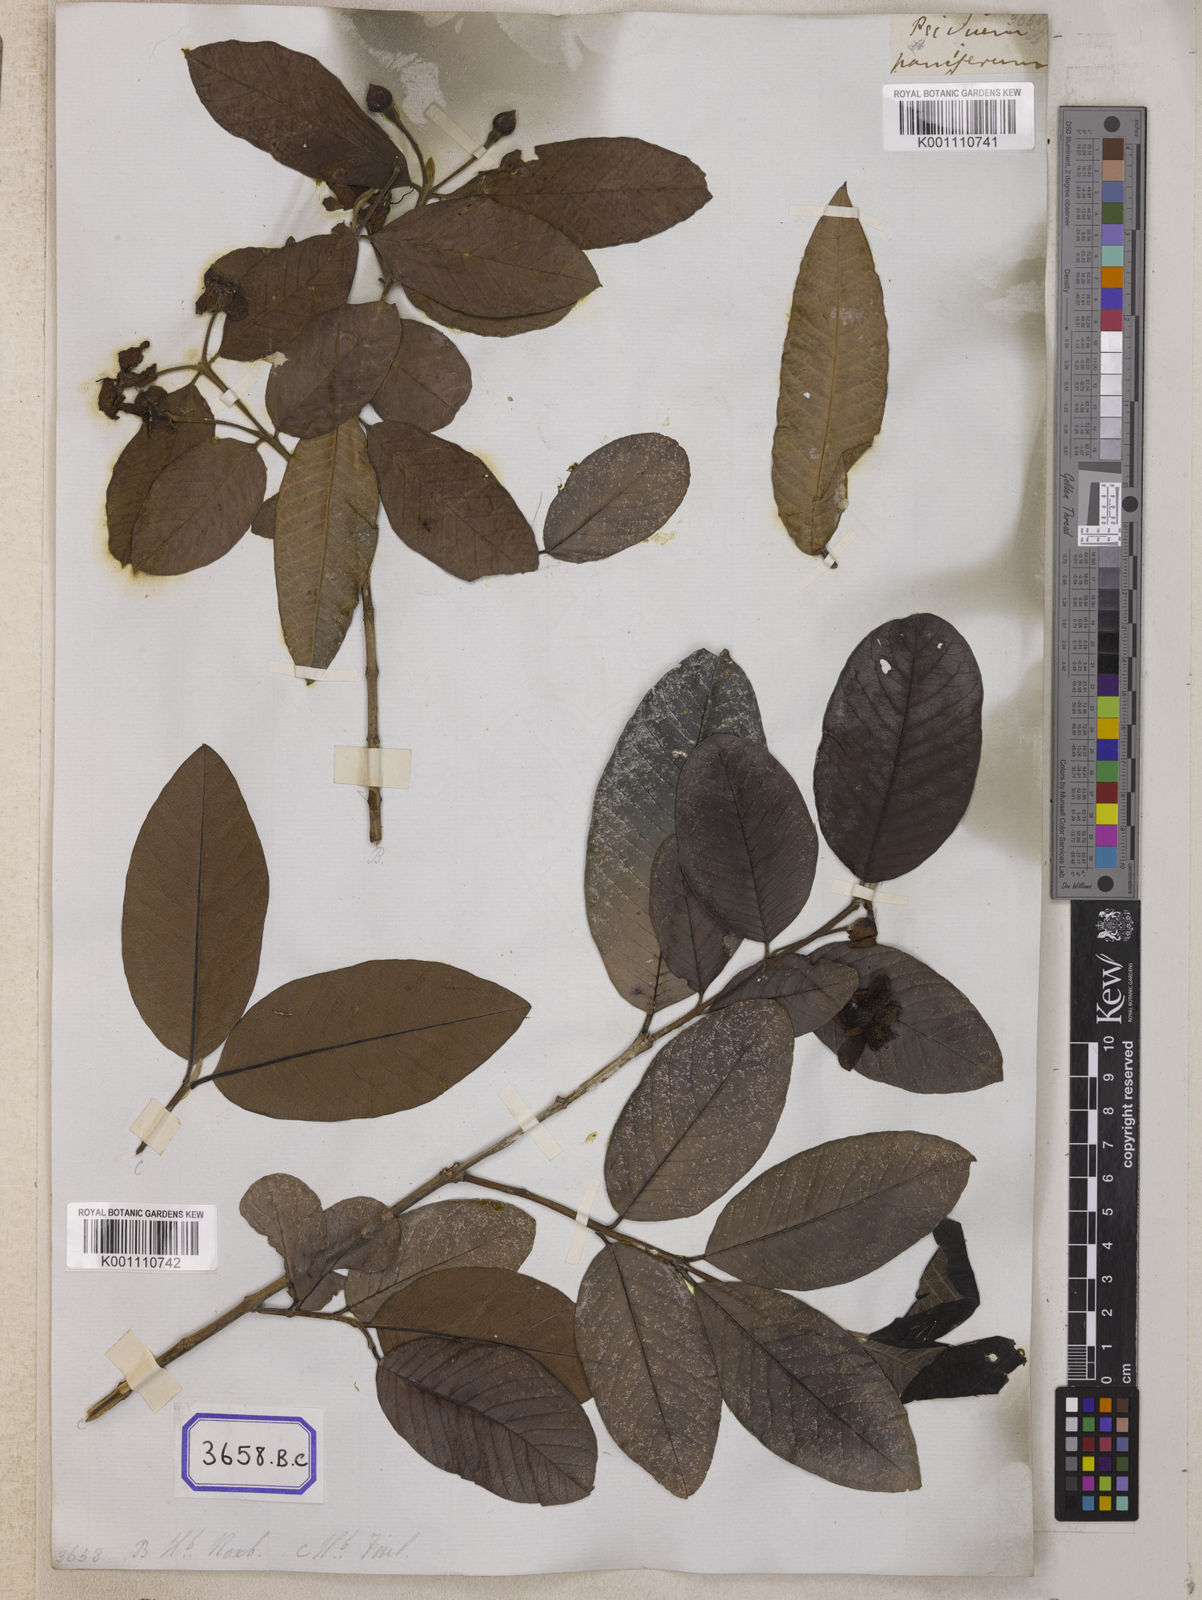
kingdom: Plantae
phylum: Tracheophyta
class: Magnoliopsida
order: Myrtales
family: Myrtaceae
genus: Psidium
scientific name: Psidium guajava
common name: Guava
